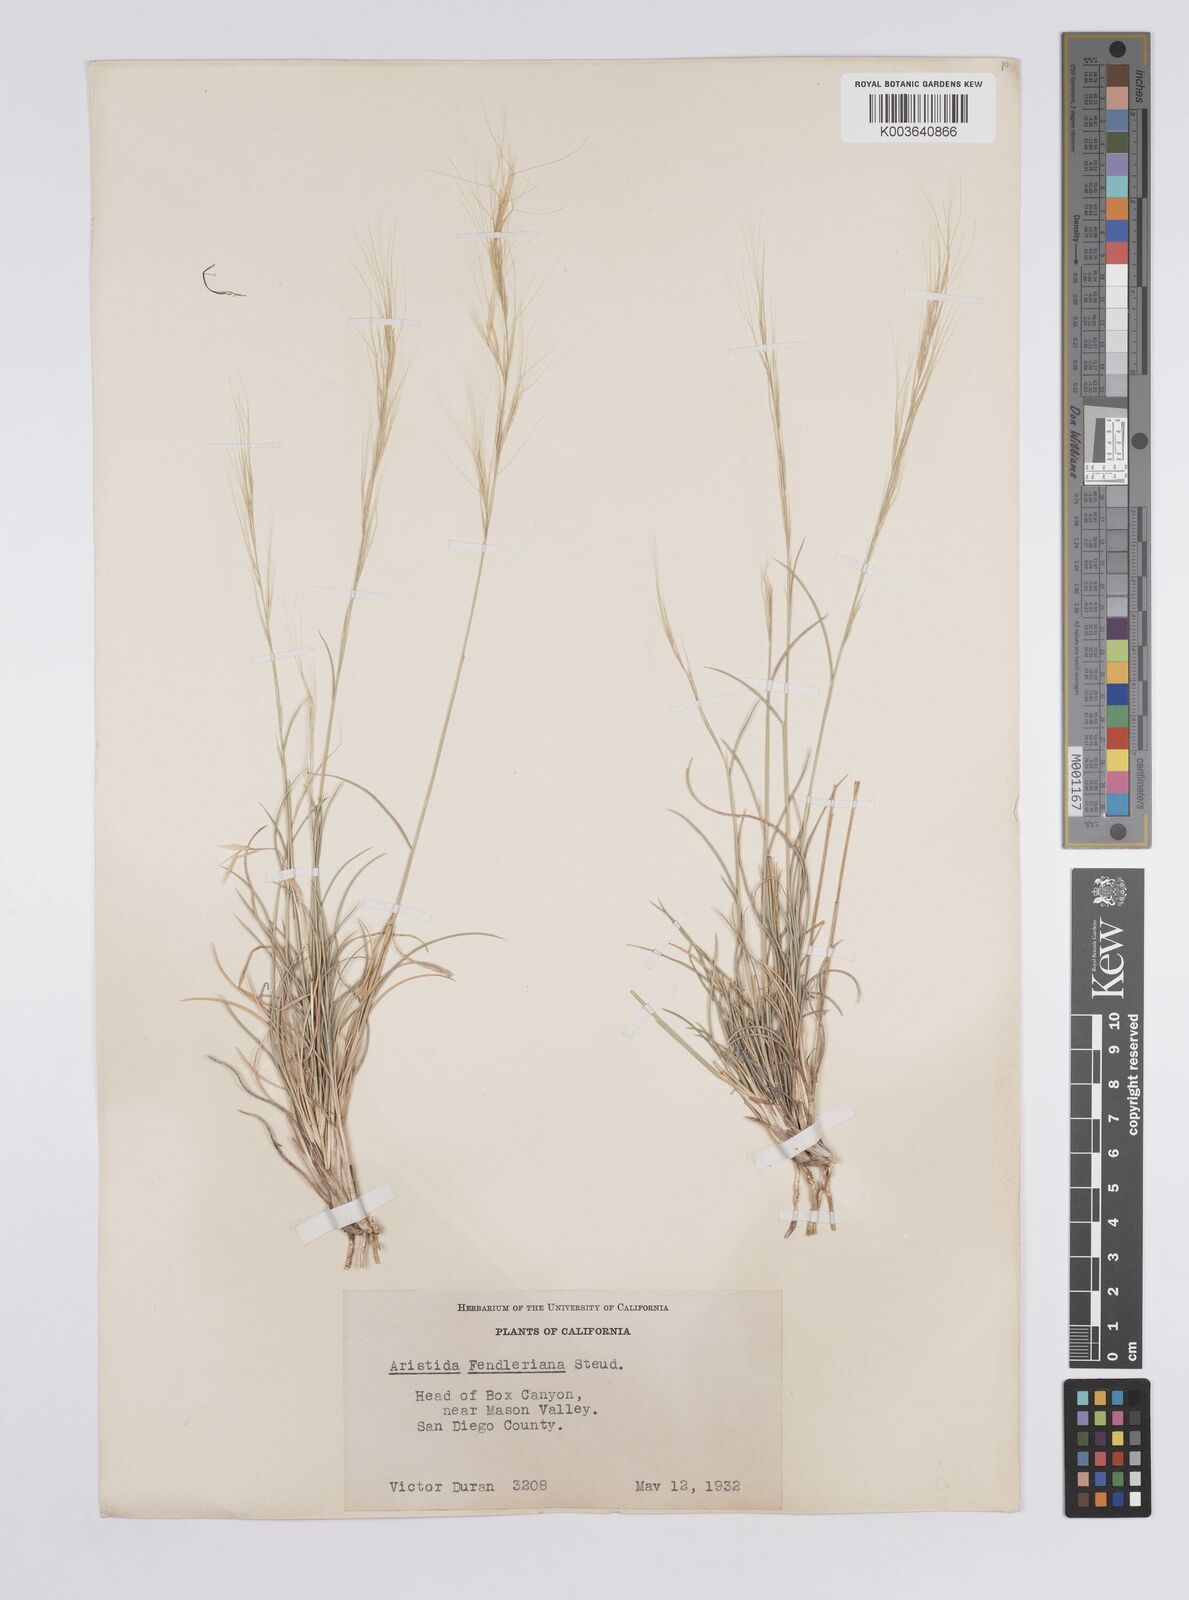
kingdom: Plantae
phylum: Tracheophyta
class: Liliopsida
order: Poales
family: Poaceae
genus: Aristida
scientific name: Aristida purpurea
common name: Purple threeawn
